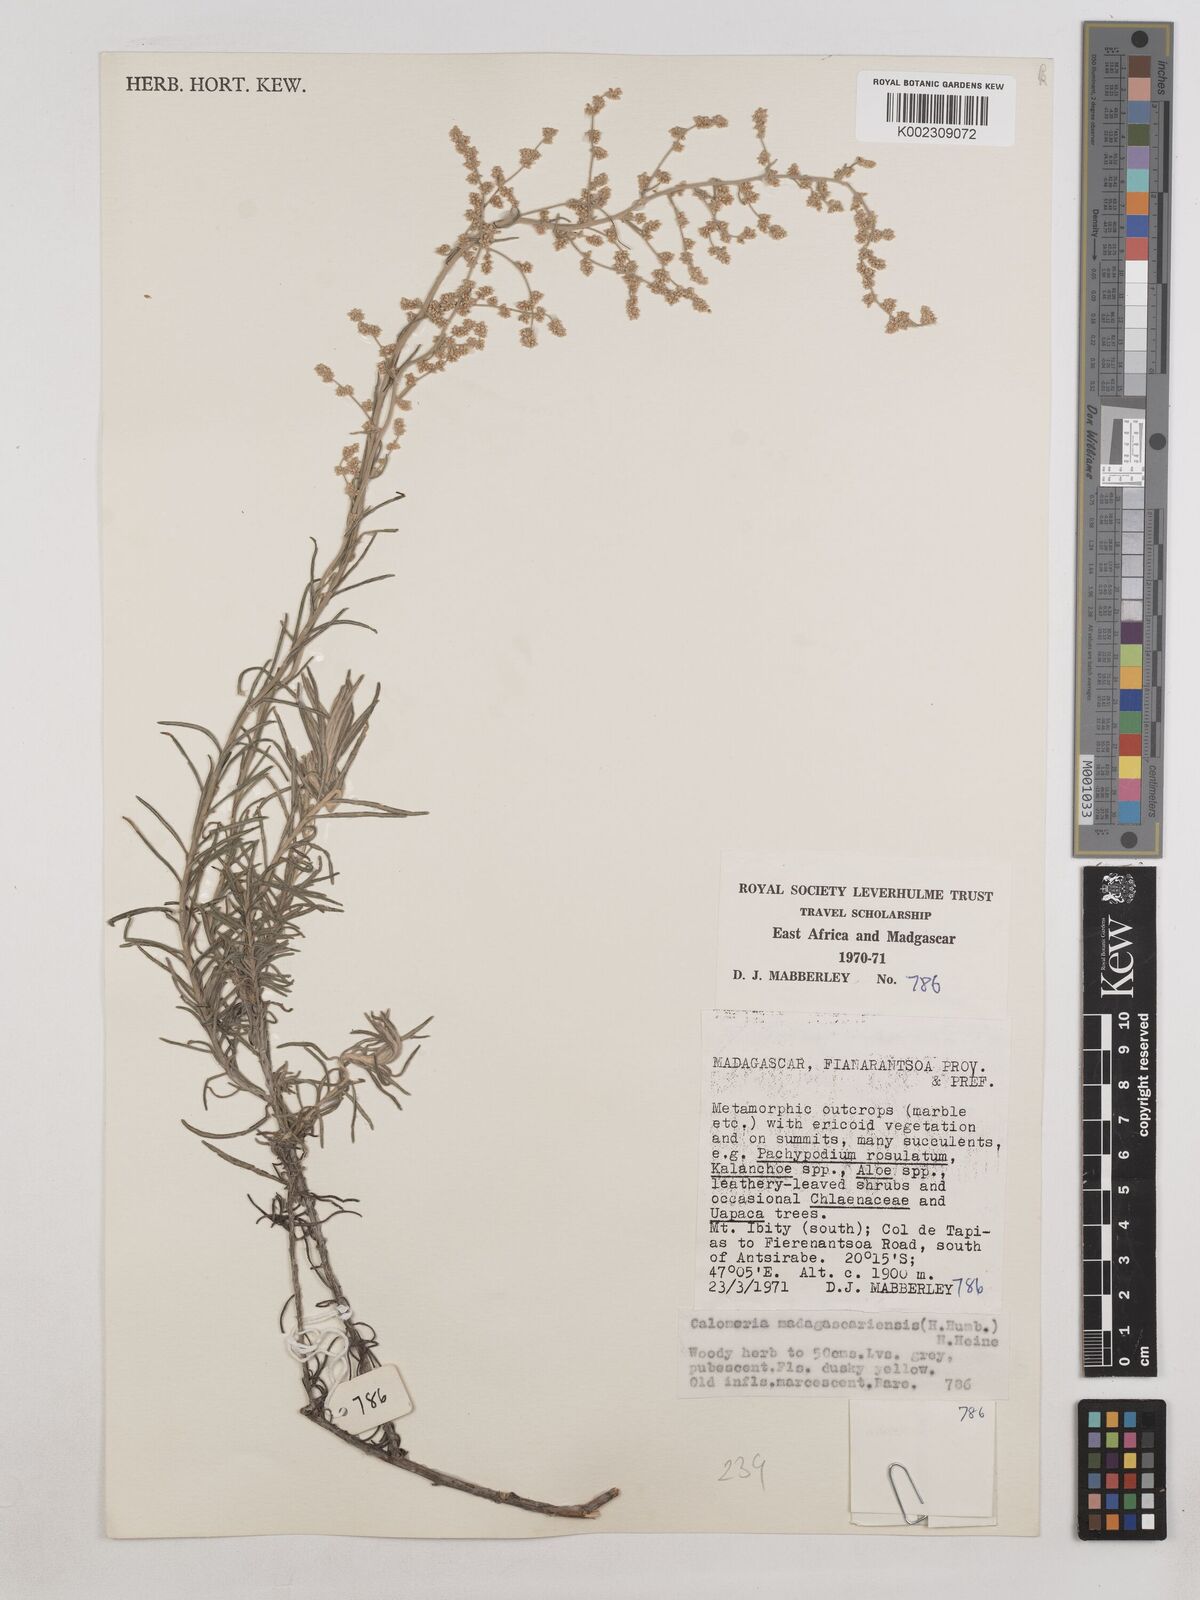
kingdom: Plantae
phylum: Tracheophyta
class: Magnoliopsida
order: Asterales
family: Asteraceae
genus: Humeocline
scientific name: Humeocline madagascariensis
